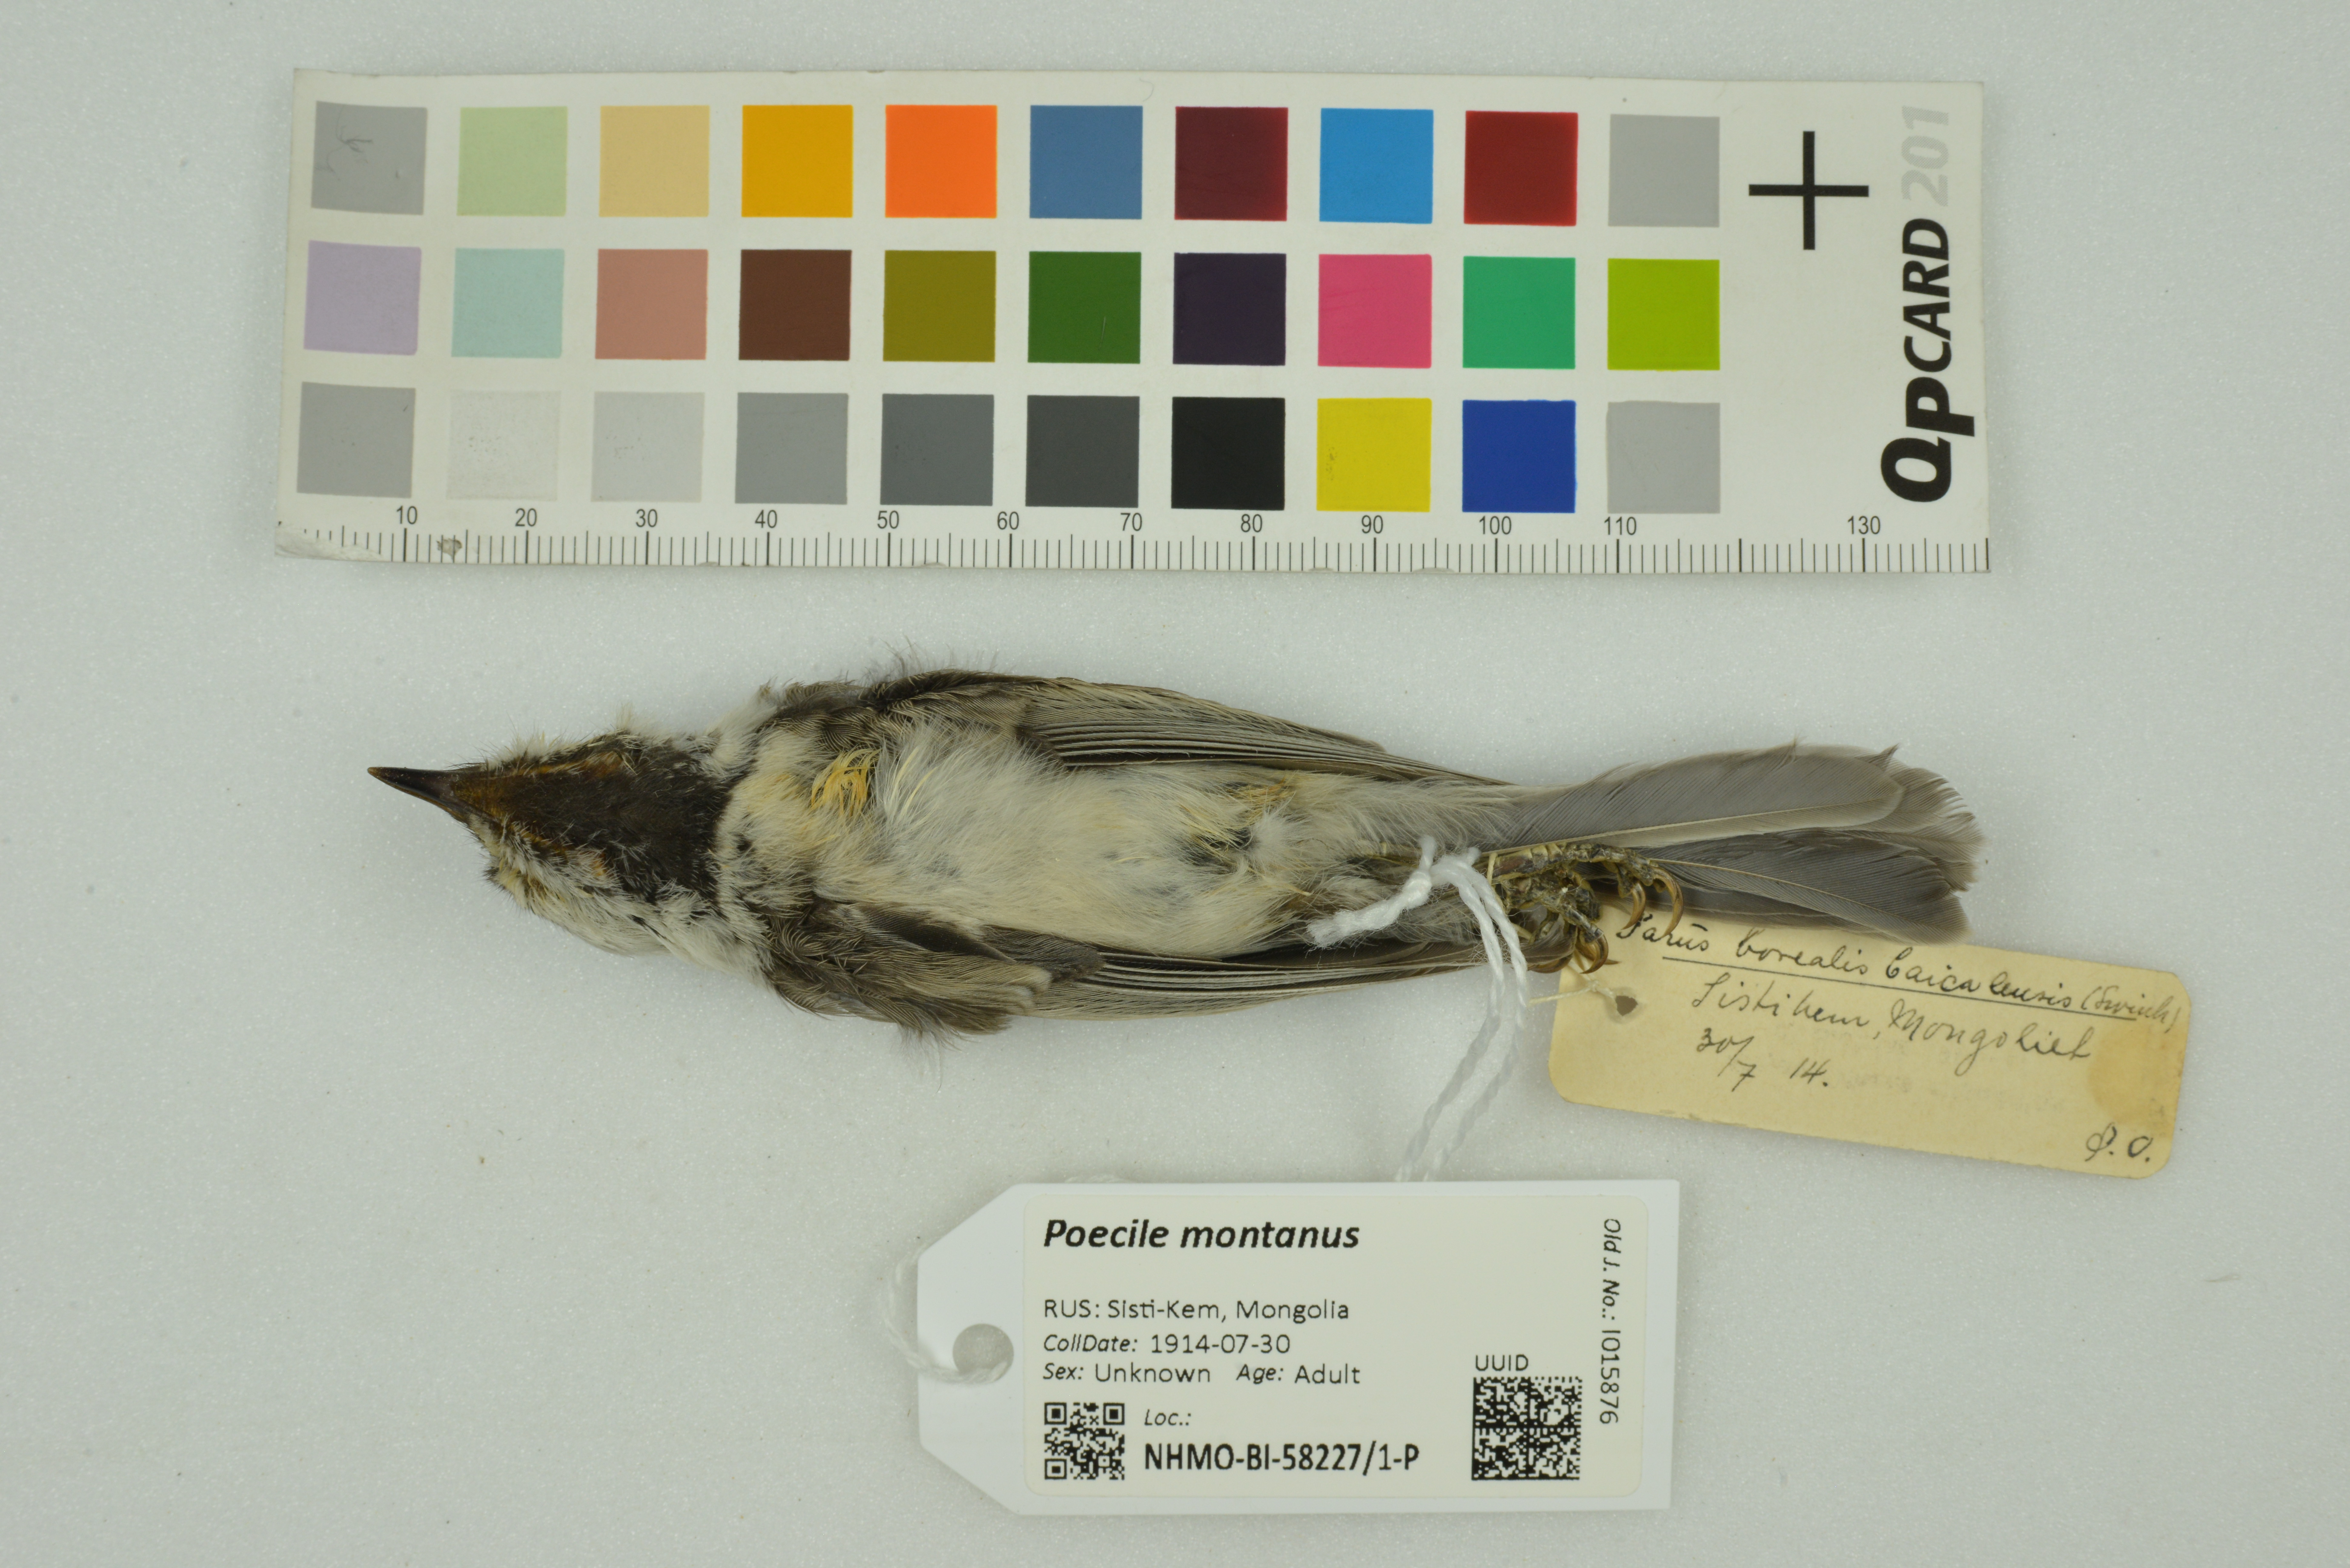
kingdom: Animalia
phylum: Chordata
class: Aves
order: Passeriformes
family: Paridae
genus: Poecile
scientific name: Poecile montanus
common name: Willow tit
